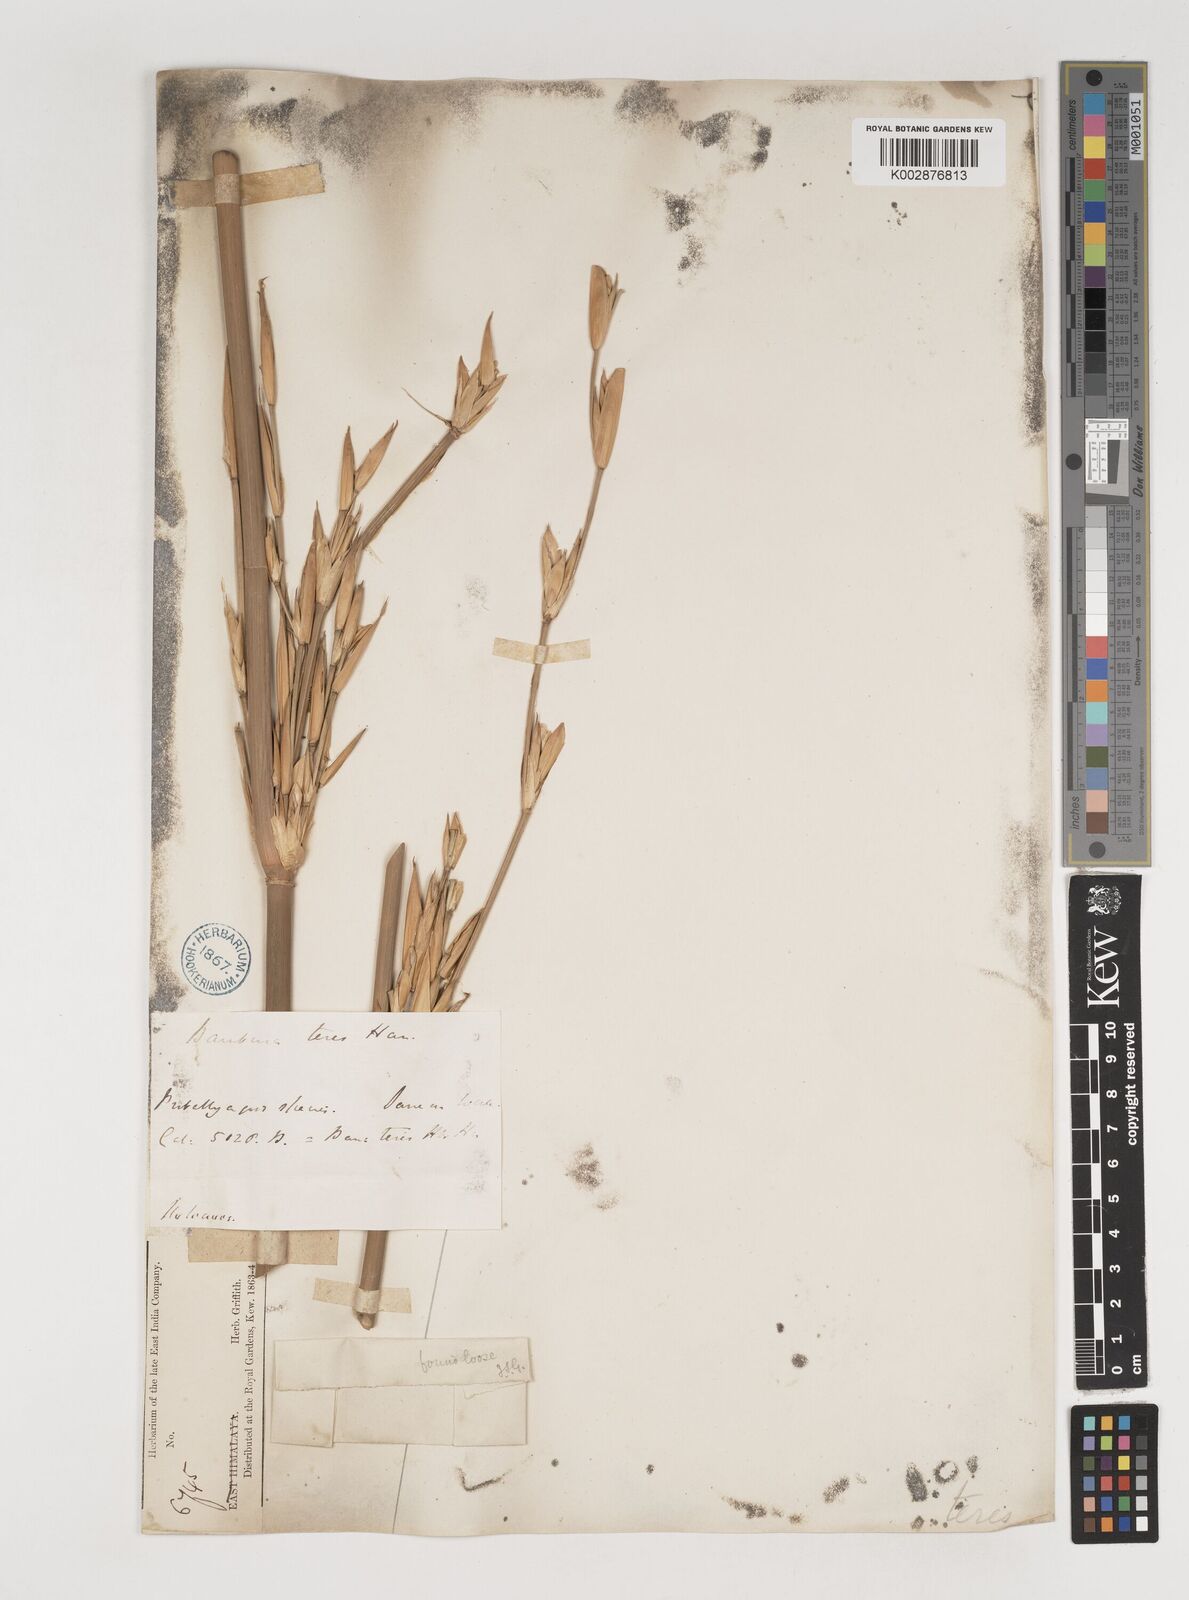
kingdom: Plantae
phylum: Tracheophyta
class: Liliopsida
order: Poales
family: Poaceae
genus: Bambusa
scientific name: Bambusa teres
